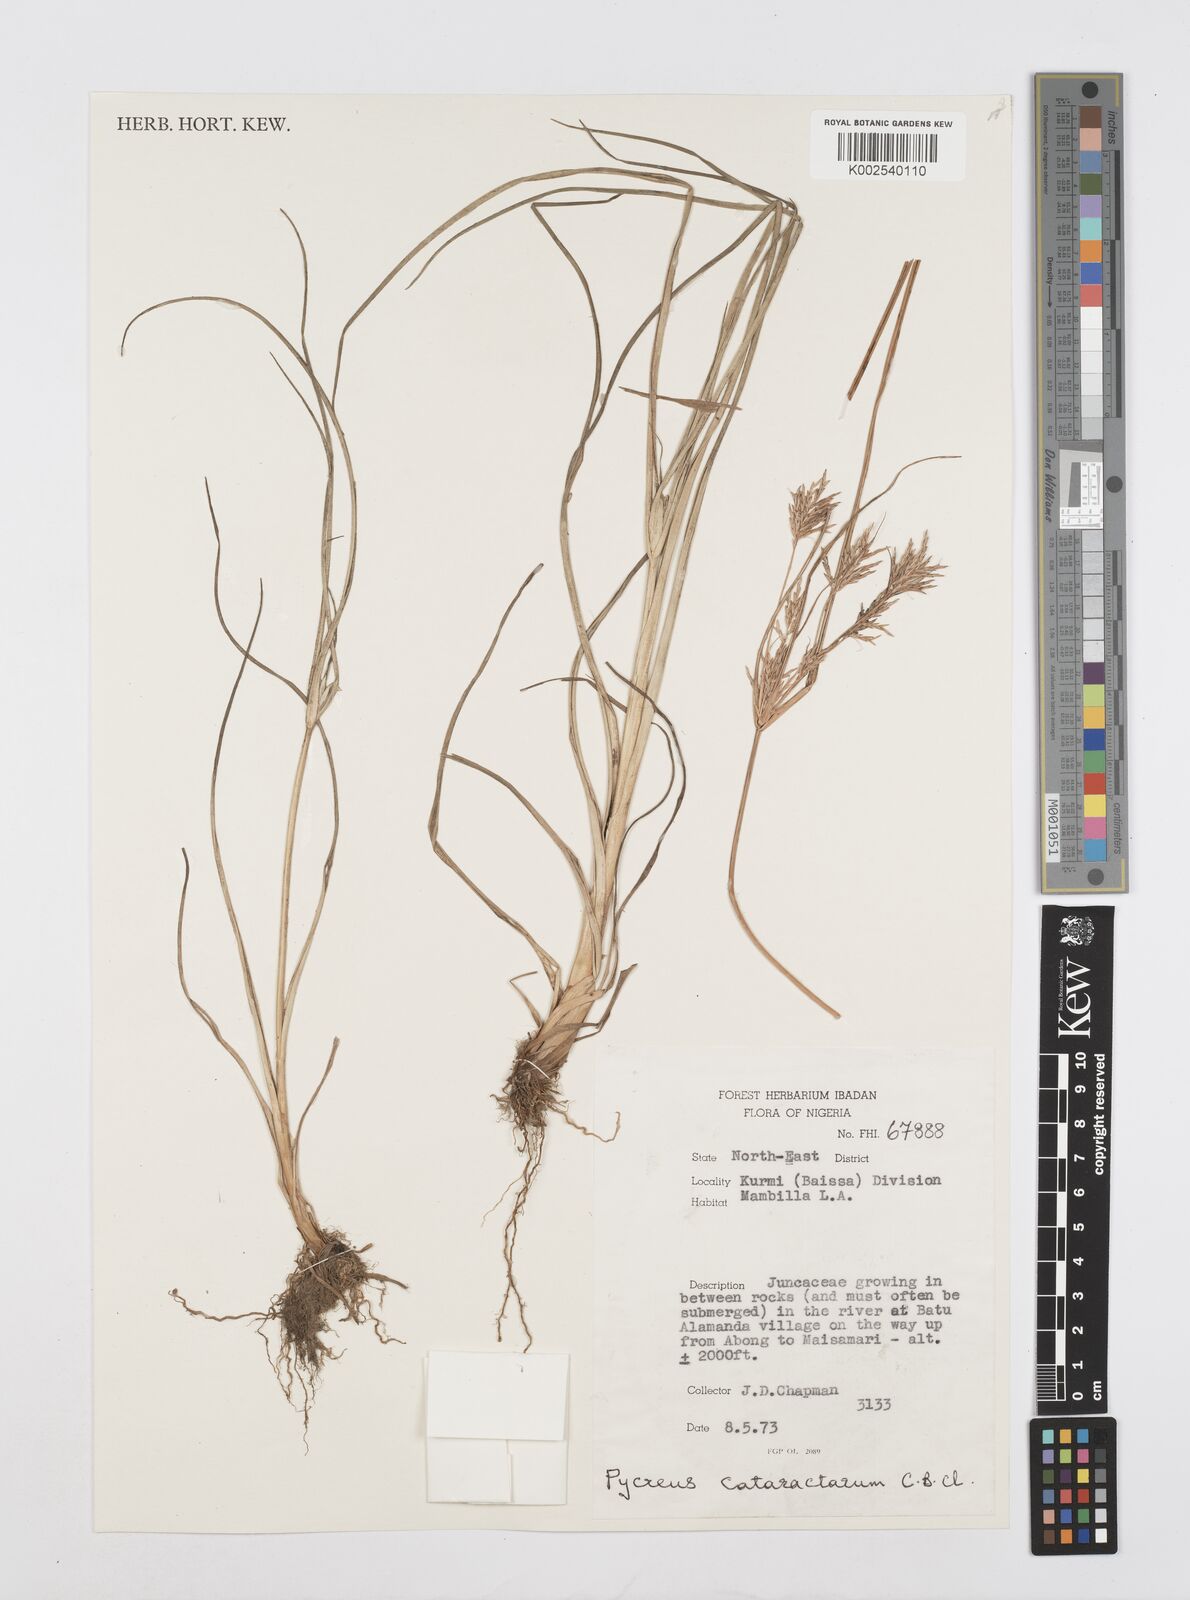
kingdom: Plantae
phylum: Tracheophyta
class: Liliopsida
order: Poales
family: Cyperaceae
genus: Cyperus
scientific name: Cyperus cataractarum
